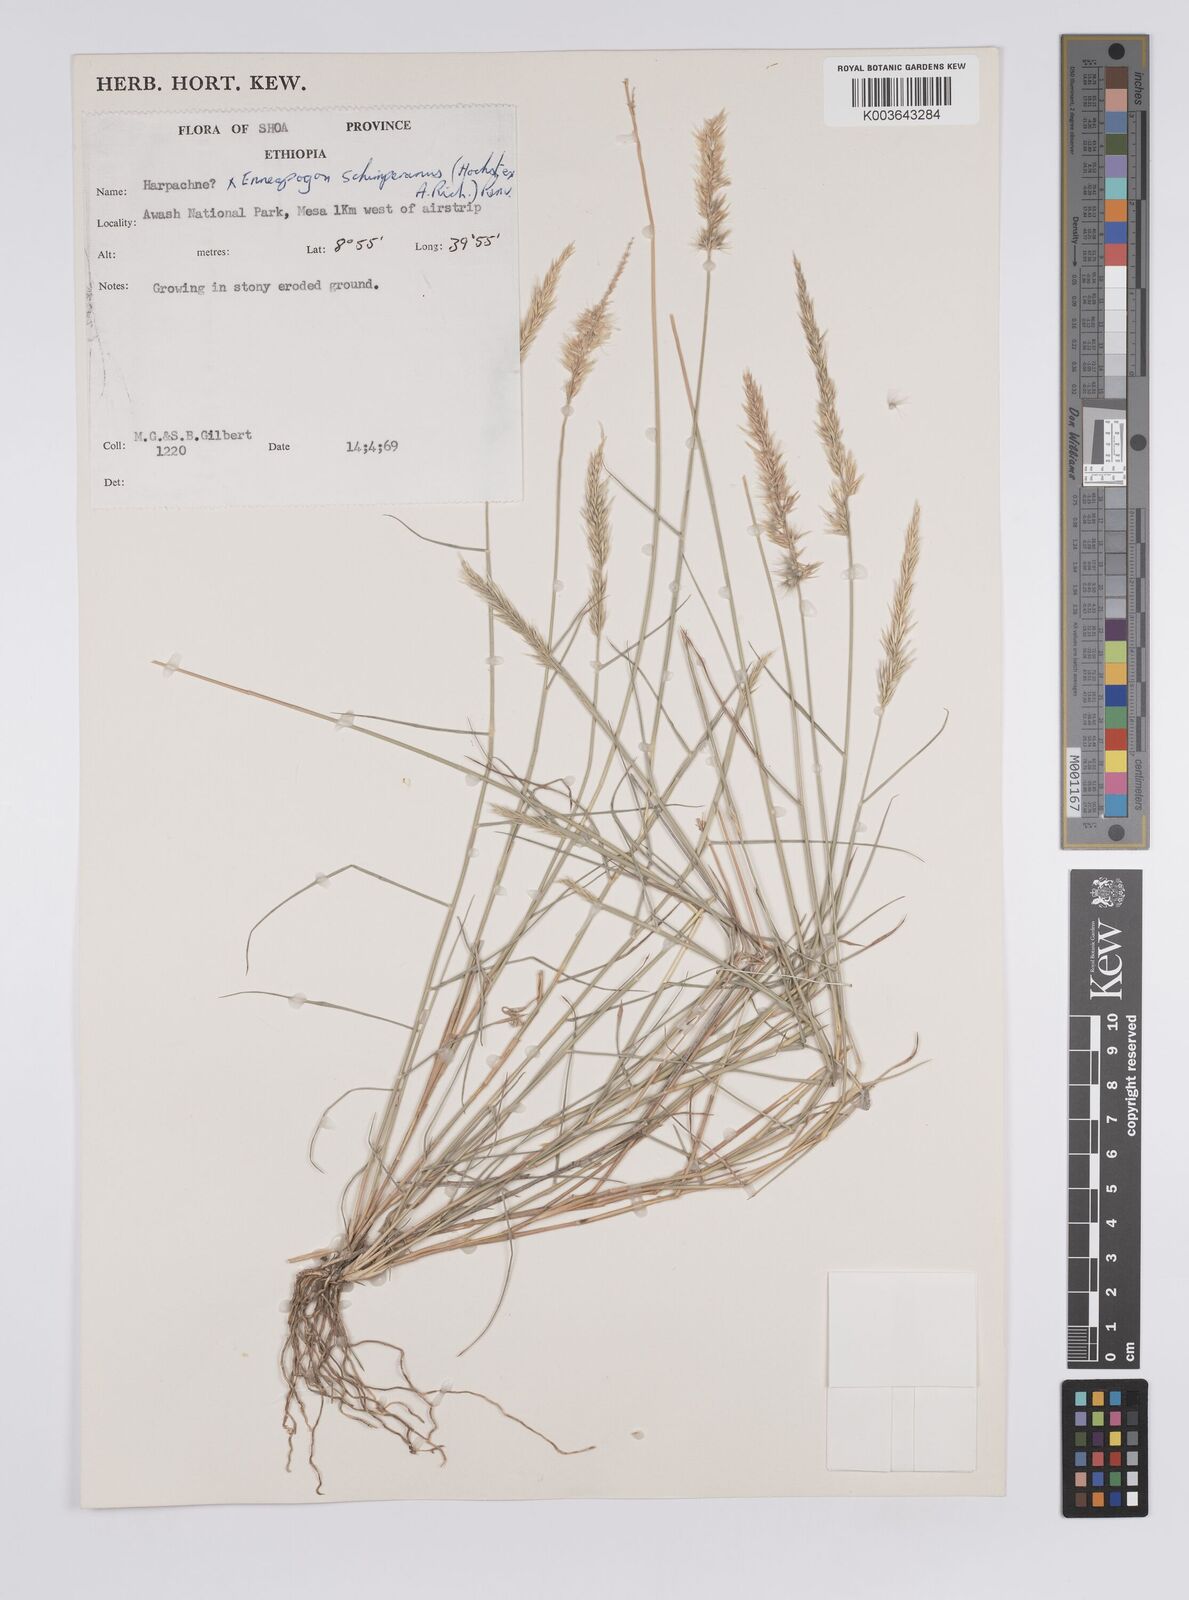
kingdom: Plantae
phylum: Tracheophyta
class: Liliopsida
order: Poales
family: Poaceae
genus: Enneapogon
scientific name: Enneapogon persicus
